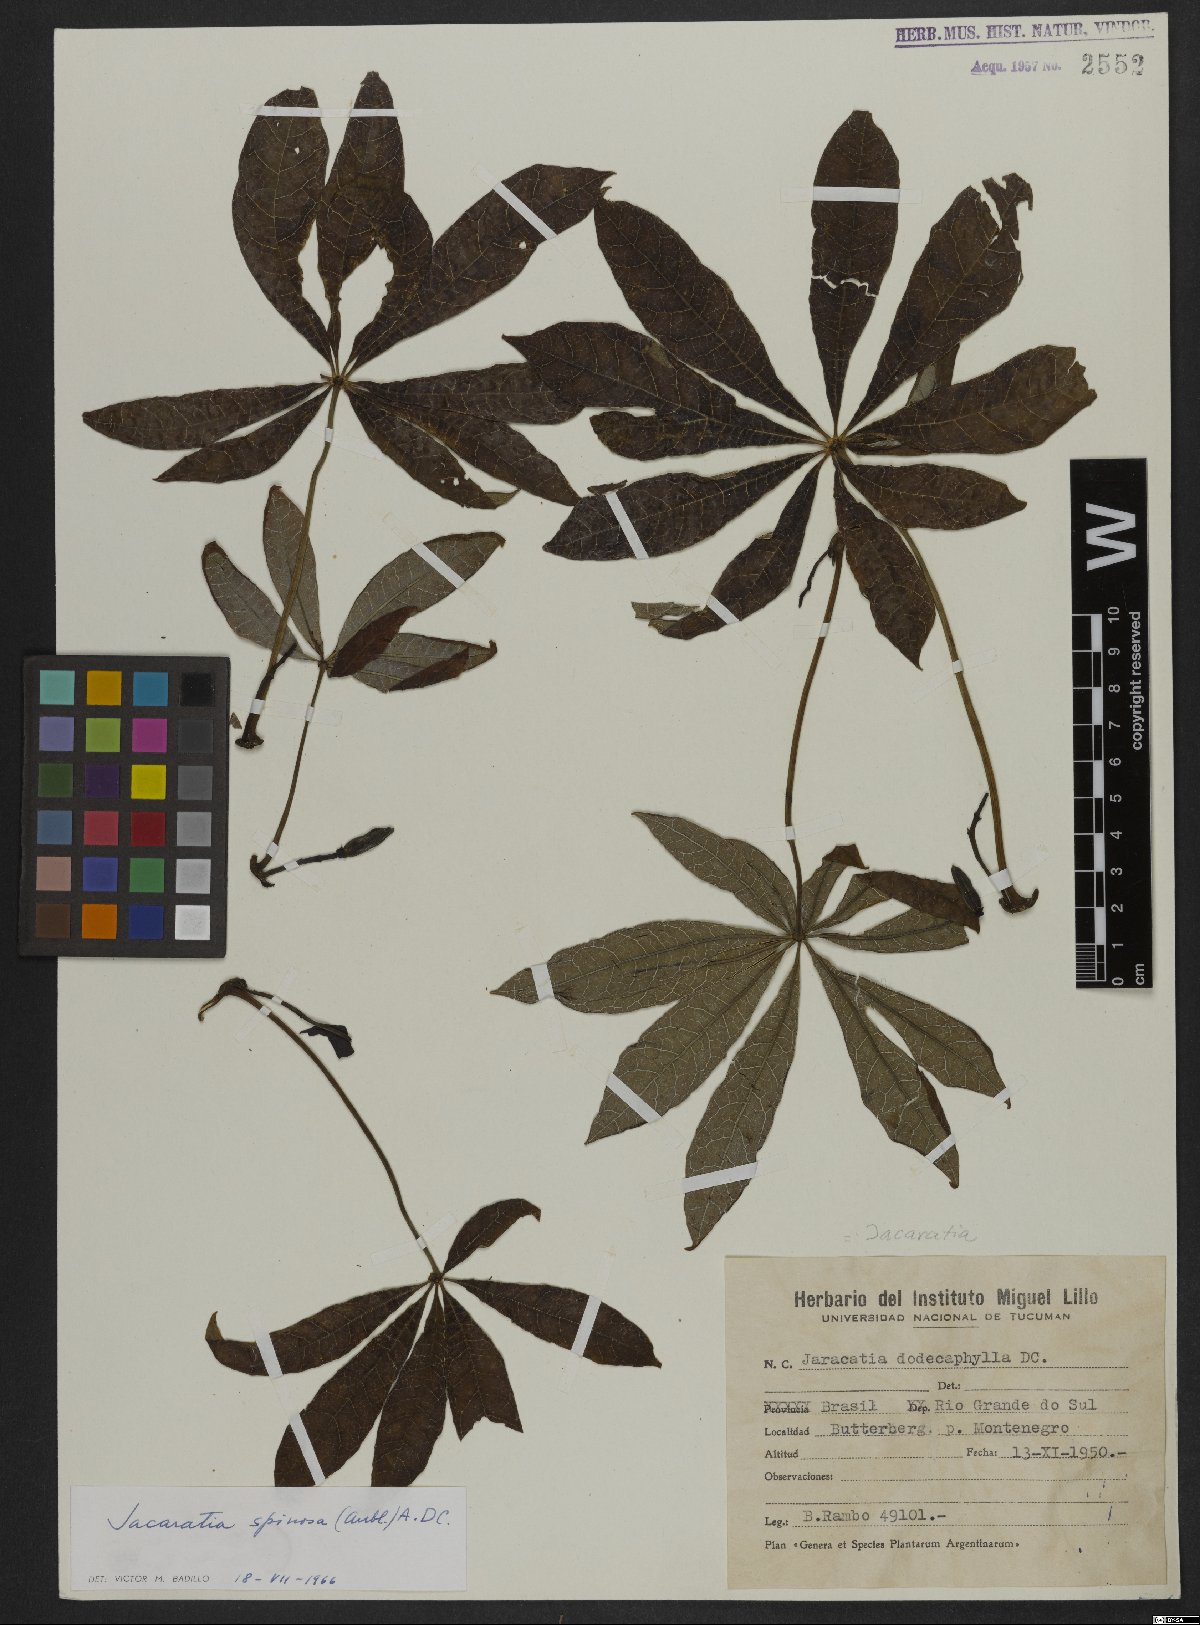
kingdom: Plantae
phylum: Tracheophyta
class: Magnoliopsida
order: Brassicales
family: Caricaceae
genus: Jacaratia
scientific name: Jacaratia spinosa
